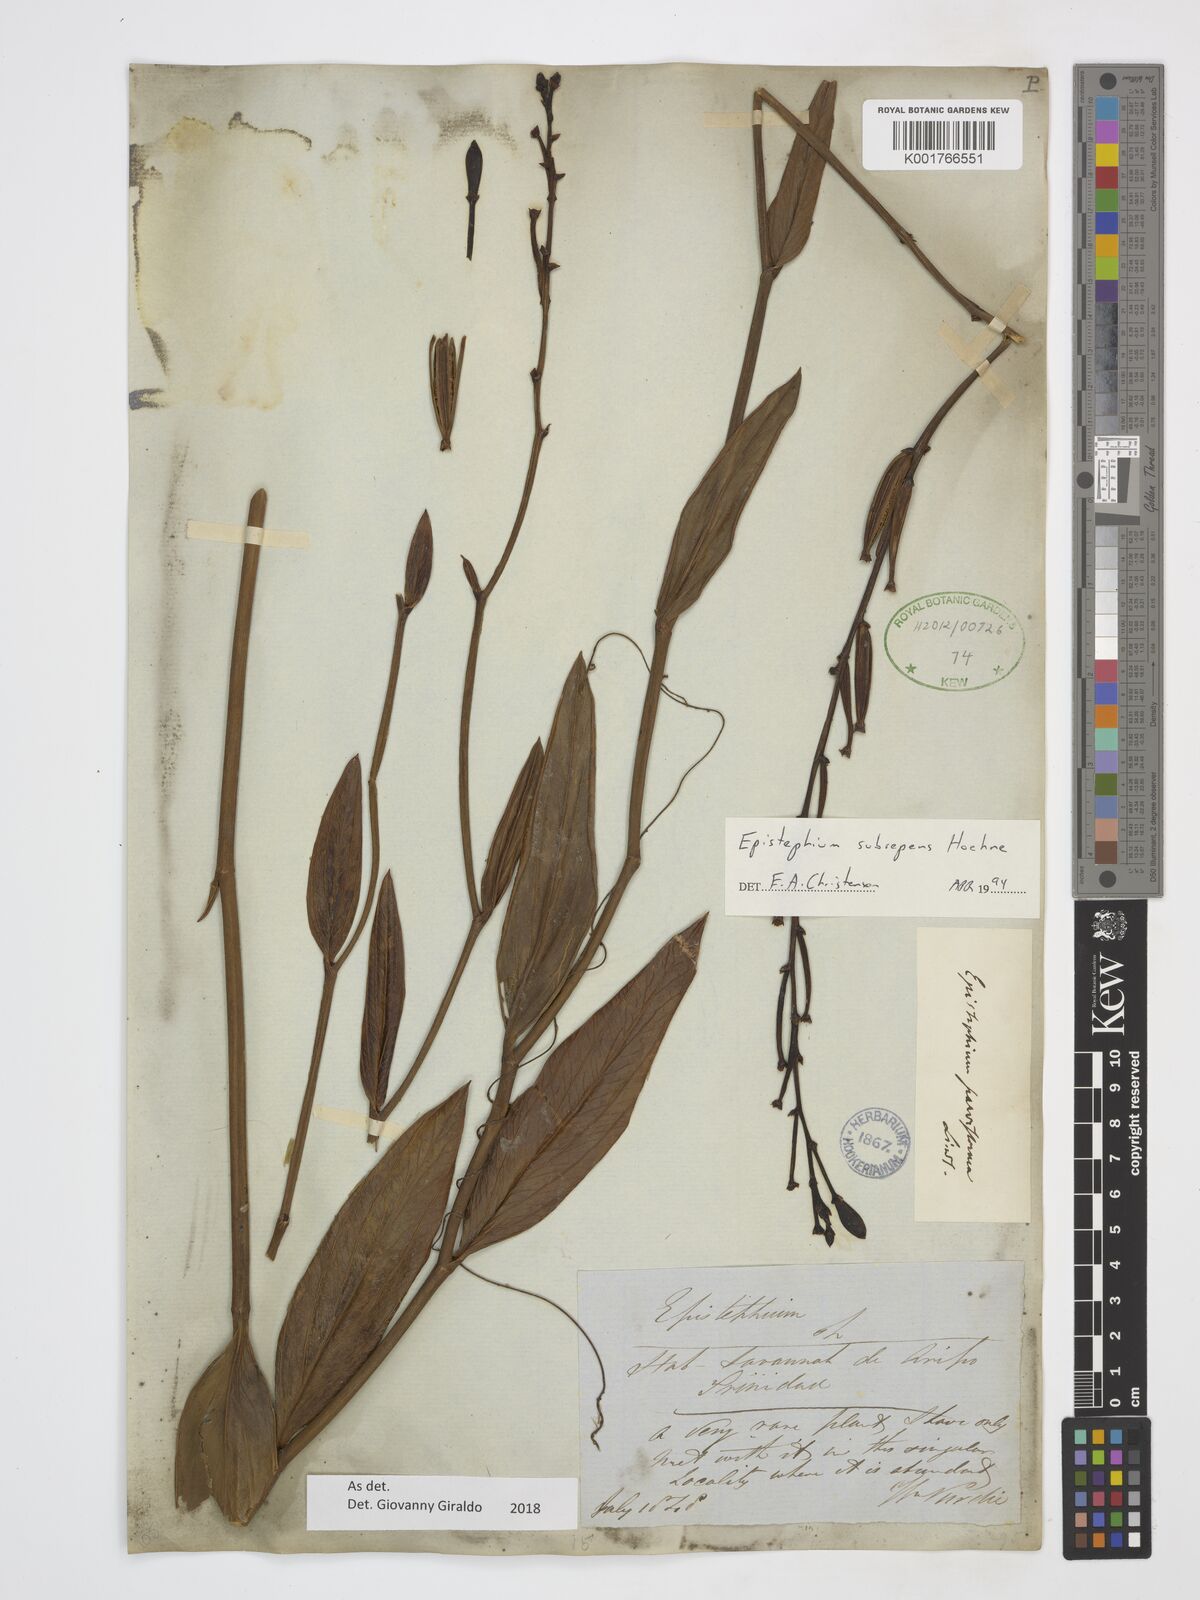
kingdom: Plantae
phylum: Tracheophyta
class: Liliopsida
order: Asparagales
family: Orchidaceae
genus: Epistephium
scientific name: Epistephium subrepens
